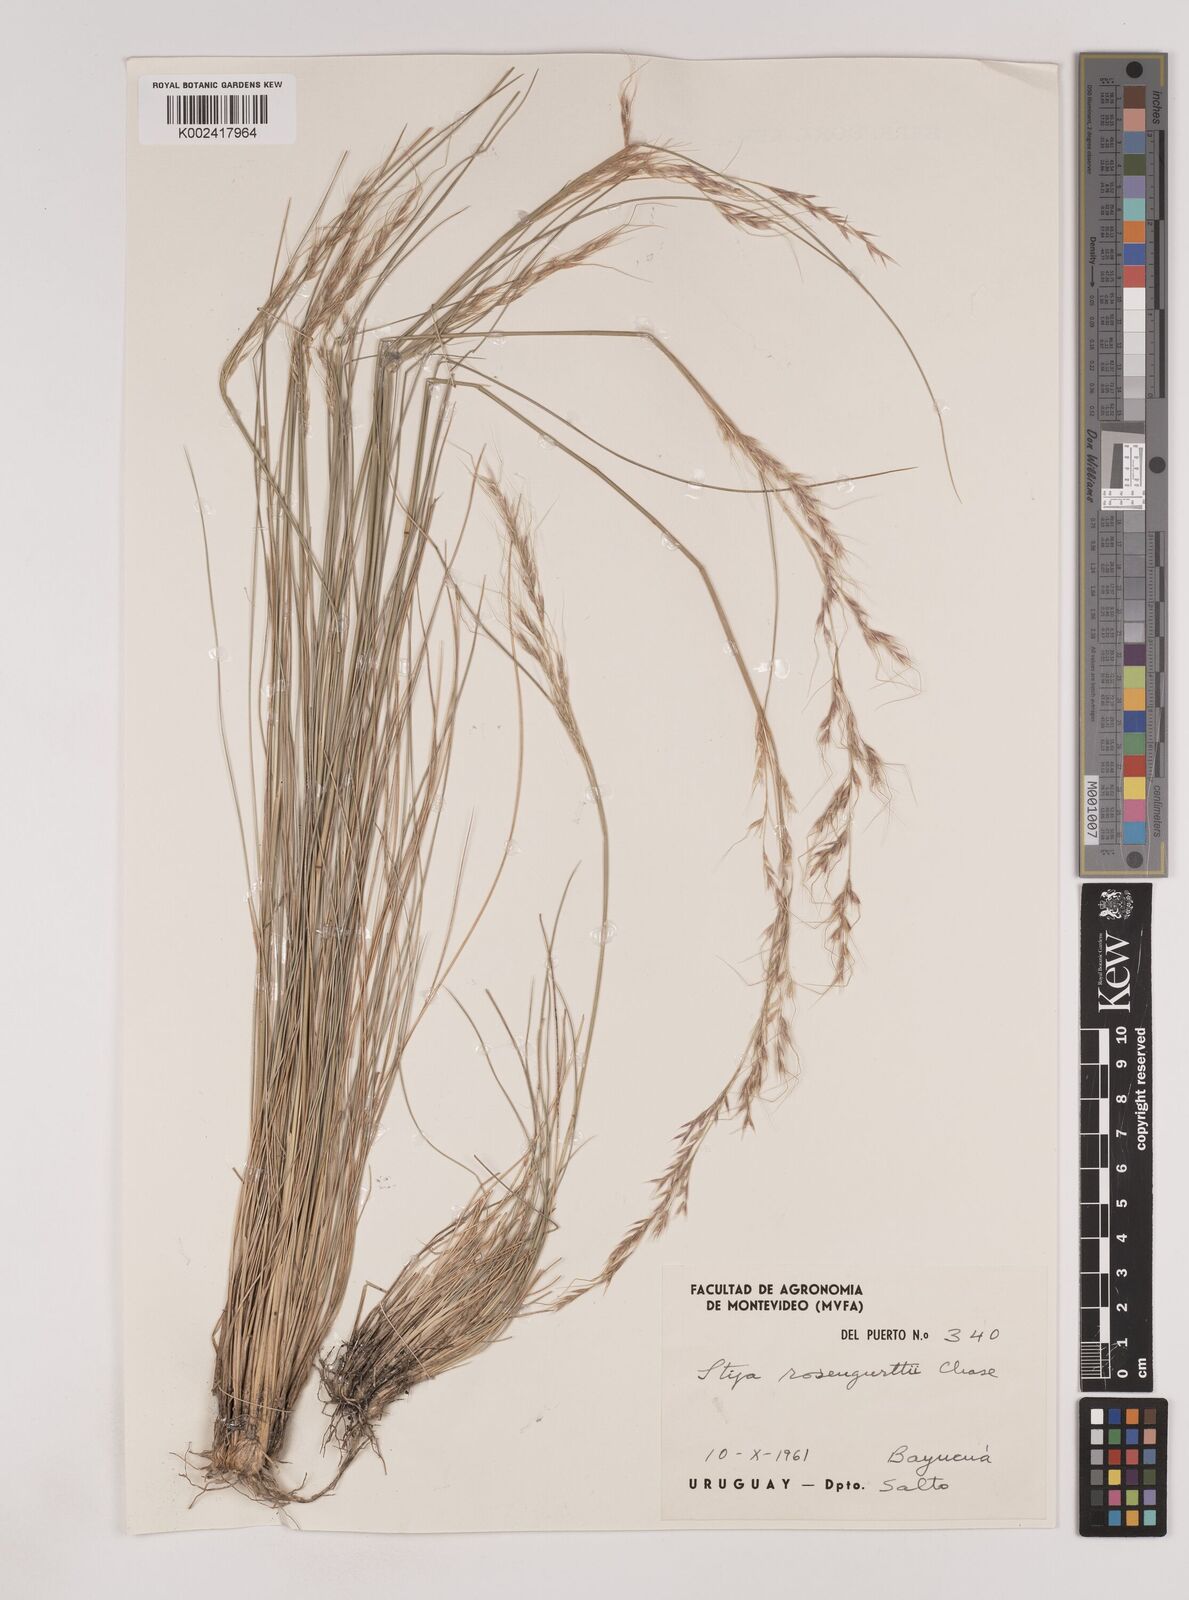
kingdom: Plantae
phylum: Tracheophyta
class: Liliopsida
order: Poales
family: Poaceae
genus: Nassella
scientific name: Nassella rosengurttii
